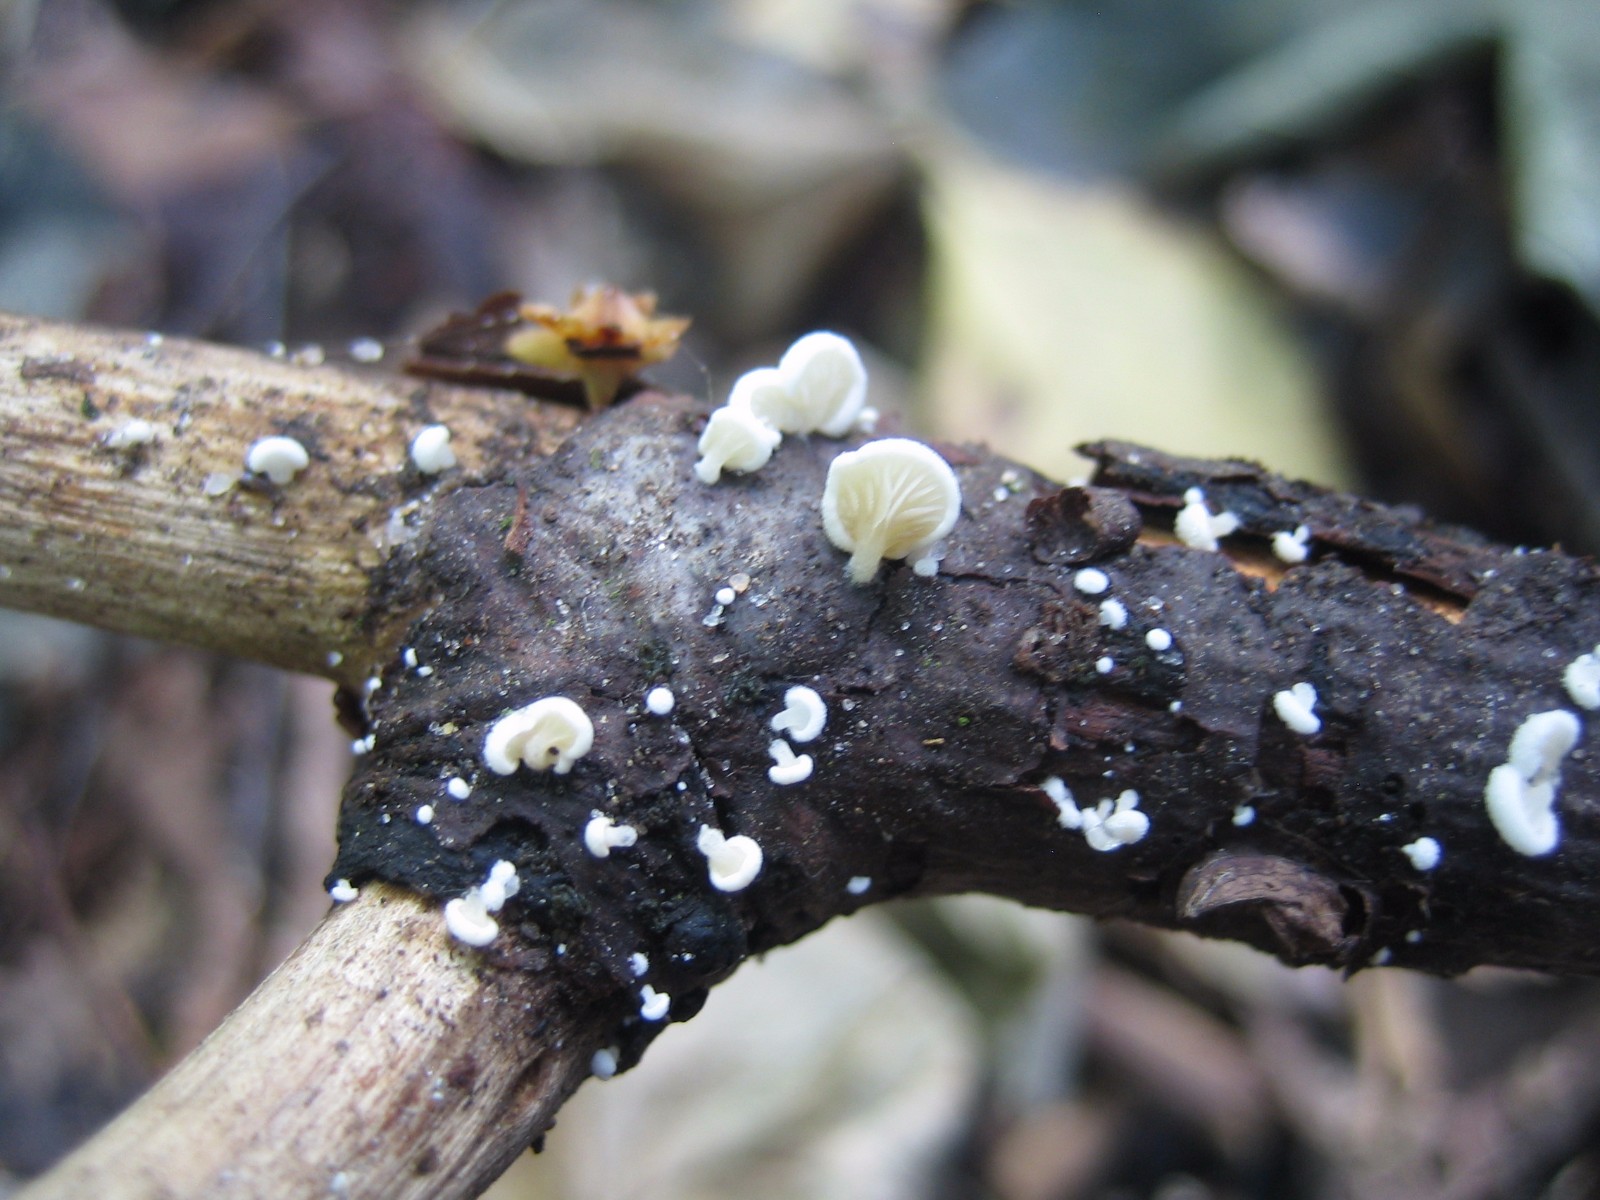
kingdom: Fungi
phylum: Basidiomycota
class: Agaricomycetes
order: Agaricales
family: Entolomataceae
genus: Clitopilus
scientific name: Clitopilus hobsonii
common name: Miller's oysterling
